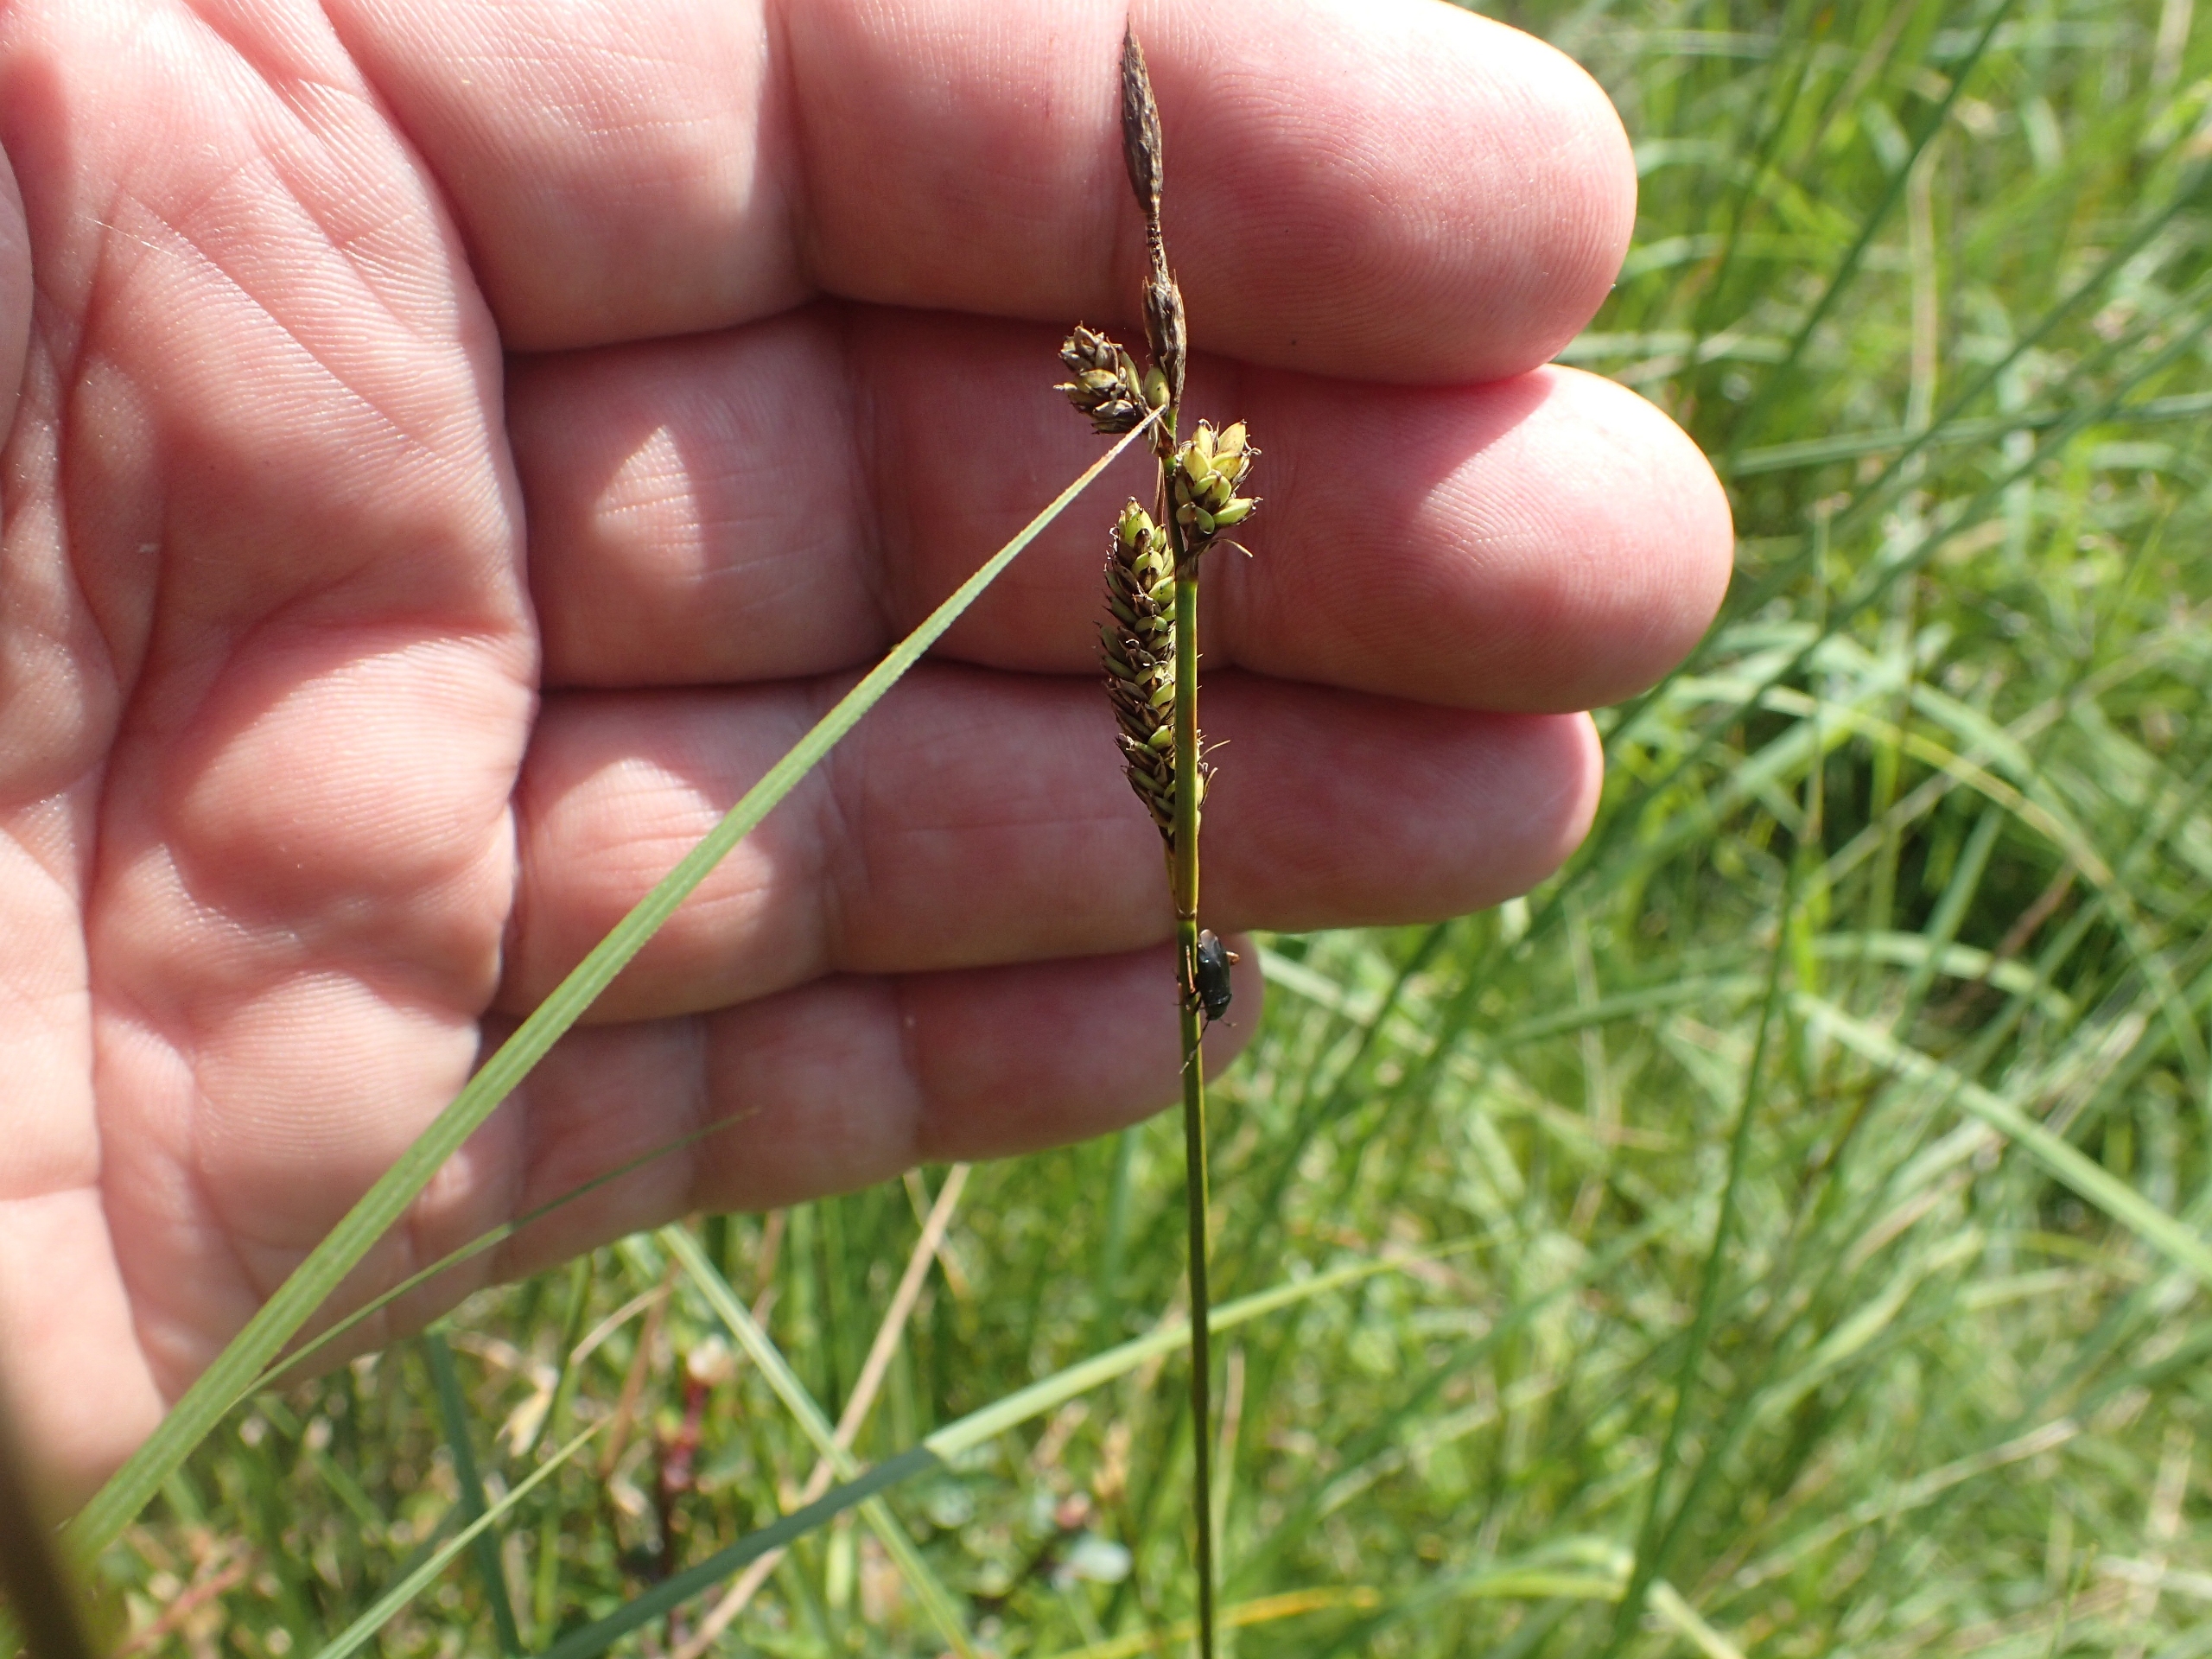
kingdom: Plantae
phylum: Tracheophyta
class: Liliopsida
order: Poales
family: Cyperaceae
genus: Carex
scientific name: Carex hartmaniorum
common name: Hartmans star
